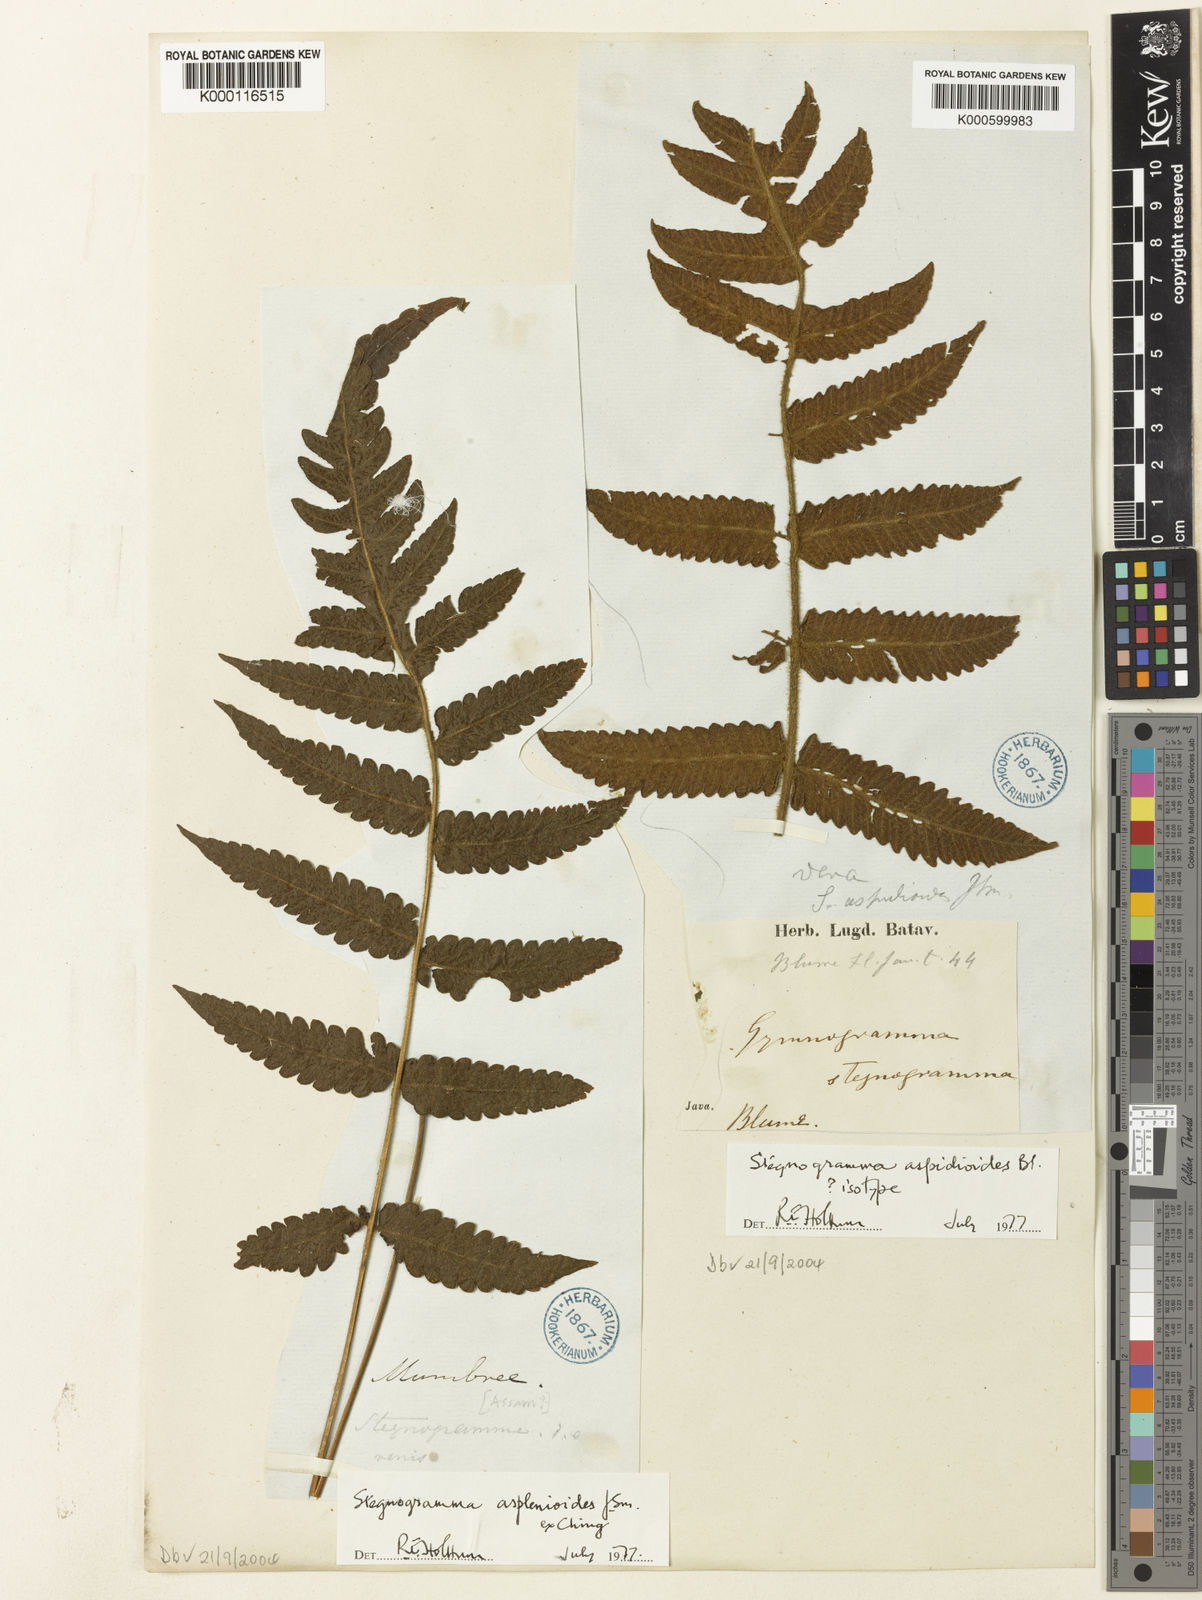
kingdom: Plantae
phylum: Tracheophyta
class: Polypodiopsida
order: Polypodiales
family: Thelypteridaceae
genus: Stegnogramma
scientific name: Stegnogramma aspidioides
